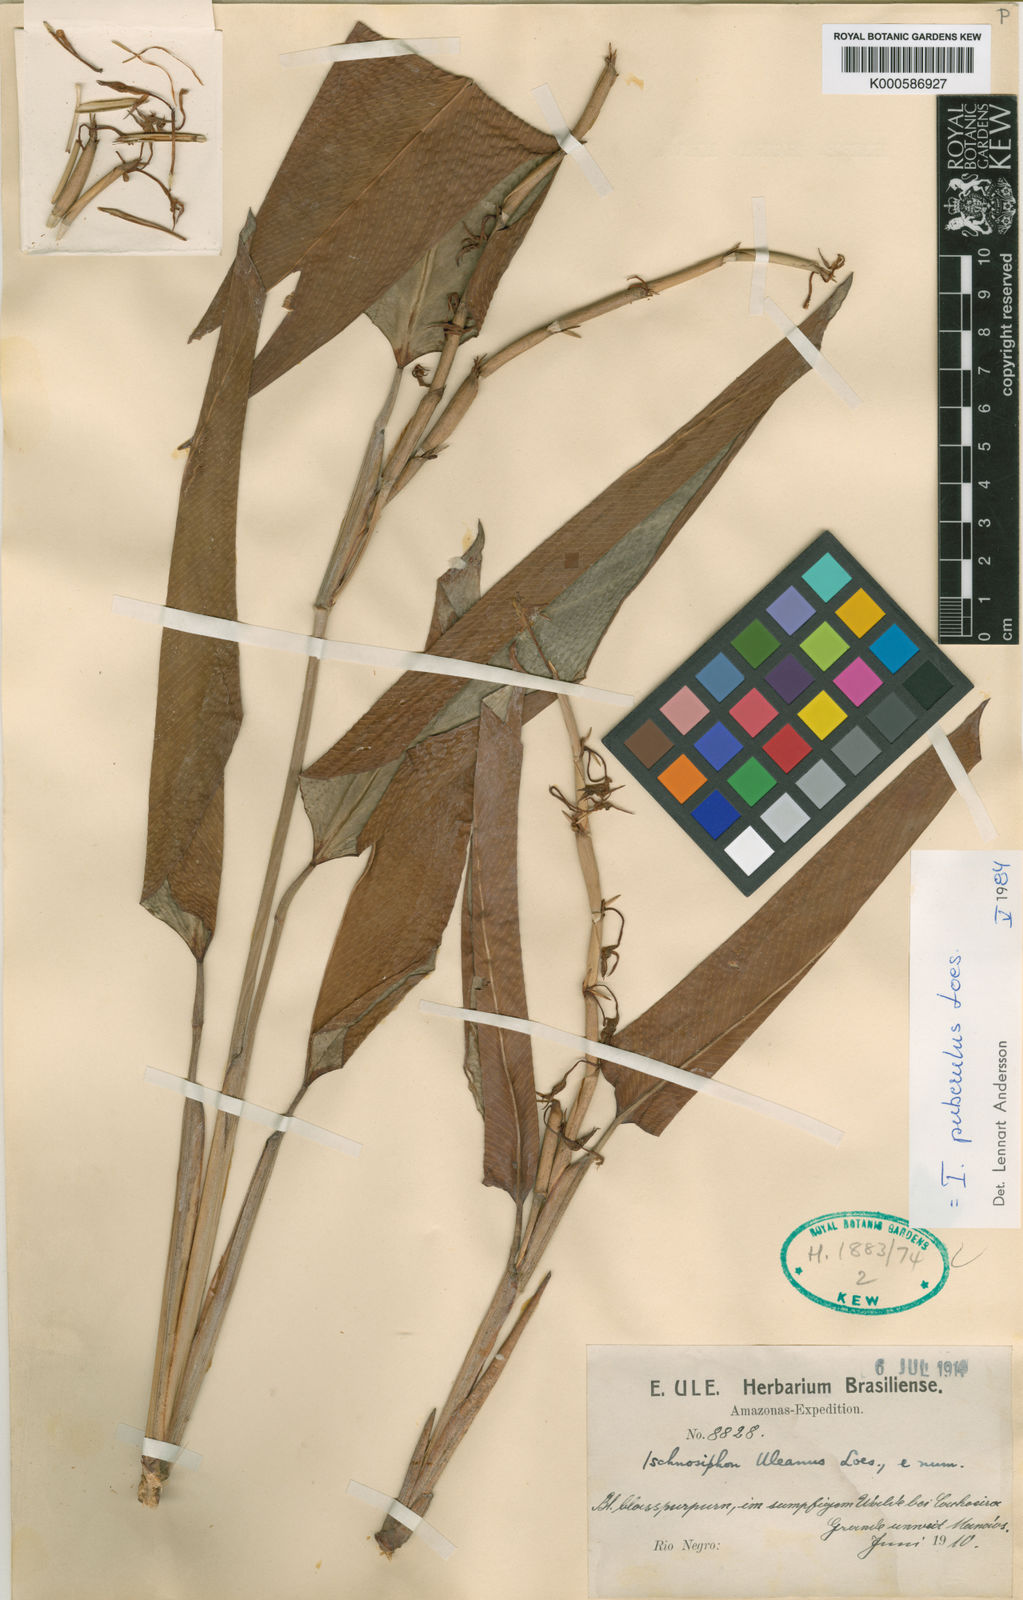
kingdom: Plantae
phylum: Tracheophyta
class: Liliopsida
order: Zingiberales
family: Marantaceae
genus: Ischnosiphon
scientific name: Ischnosiphon puberulus
